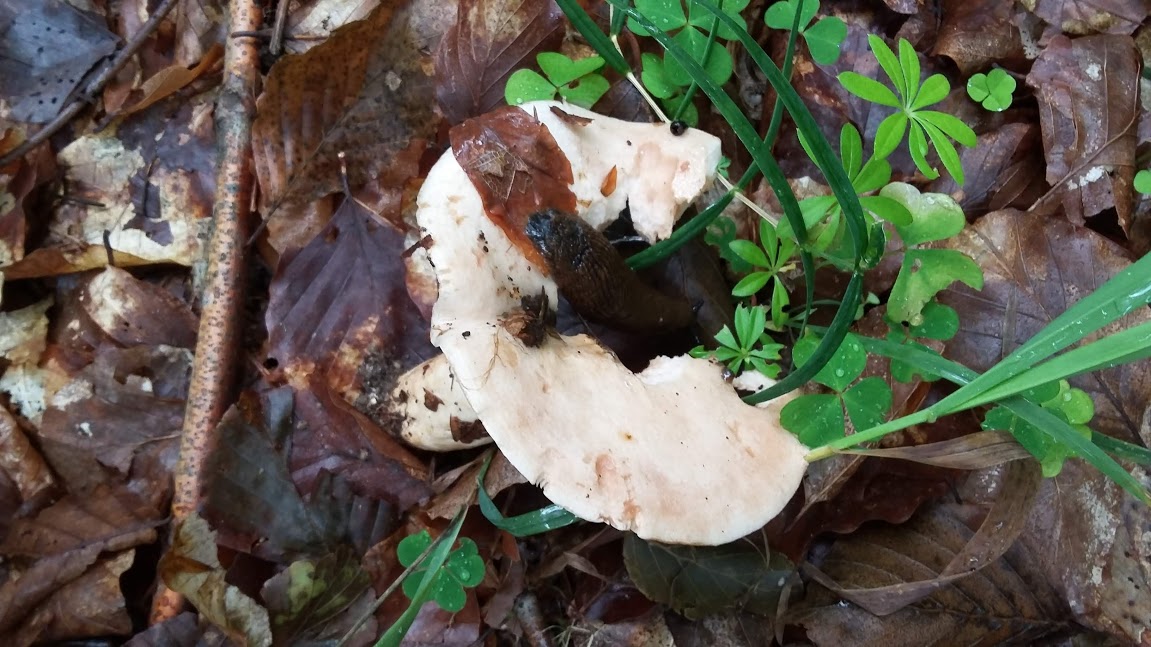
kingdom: Fungi
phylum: Basidiomycota
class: Agaricomycetes
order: Russulales
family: Russulaceae
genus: Lactarius
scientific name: Lactarius pallidus
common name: bleg mælkehat
